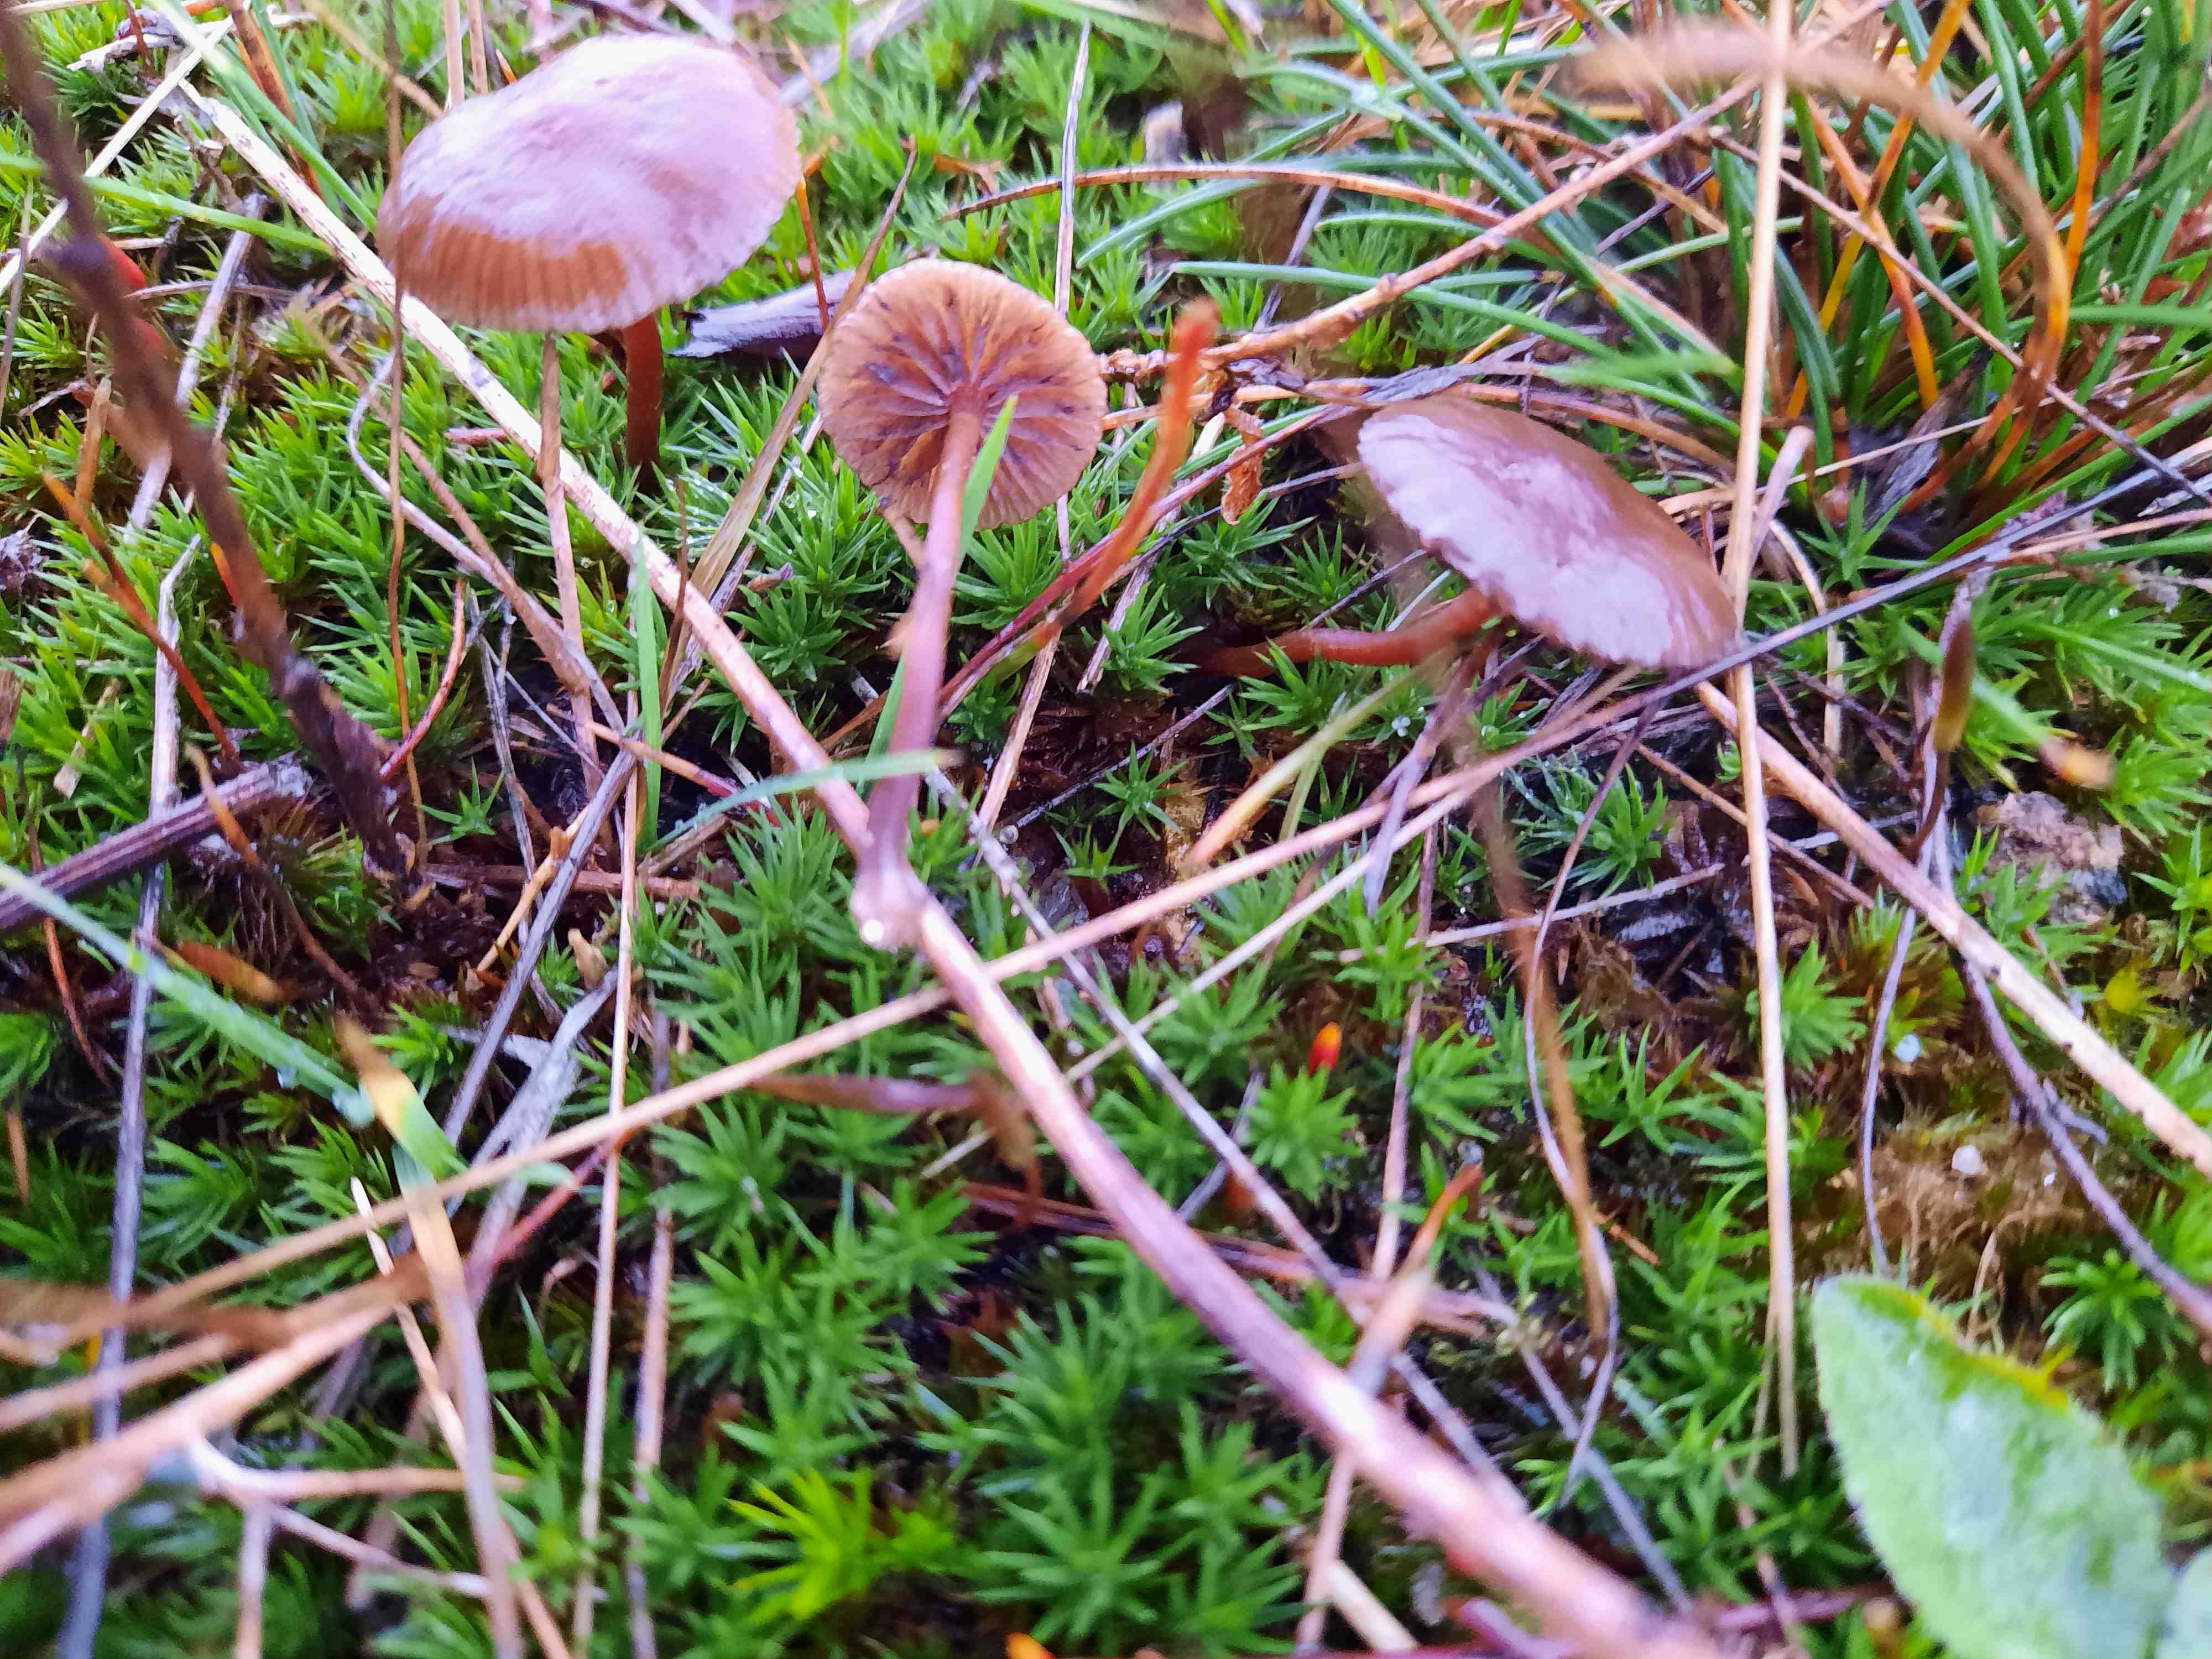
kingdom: Fungi
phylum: Basidiomycota
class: Agaricomycetes
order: Agaricales
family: Strophariaceae
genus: Deconica
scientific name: Deconica montana
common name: rødbrun stråhat
